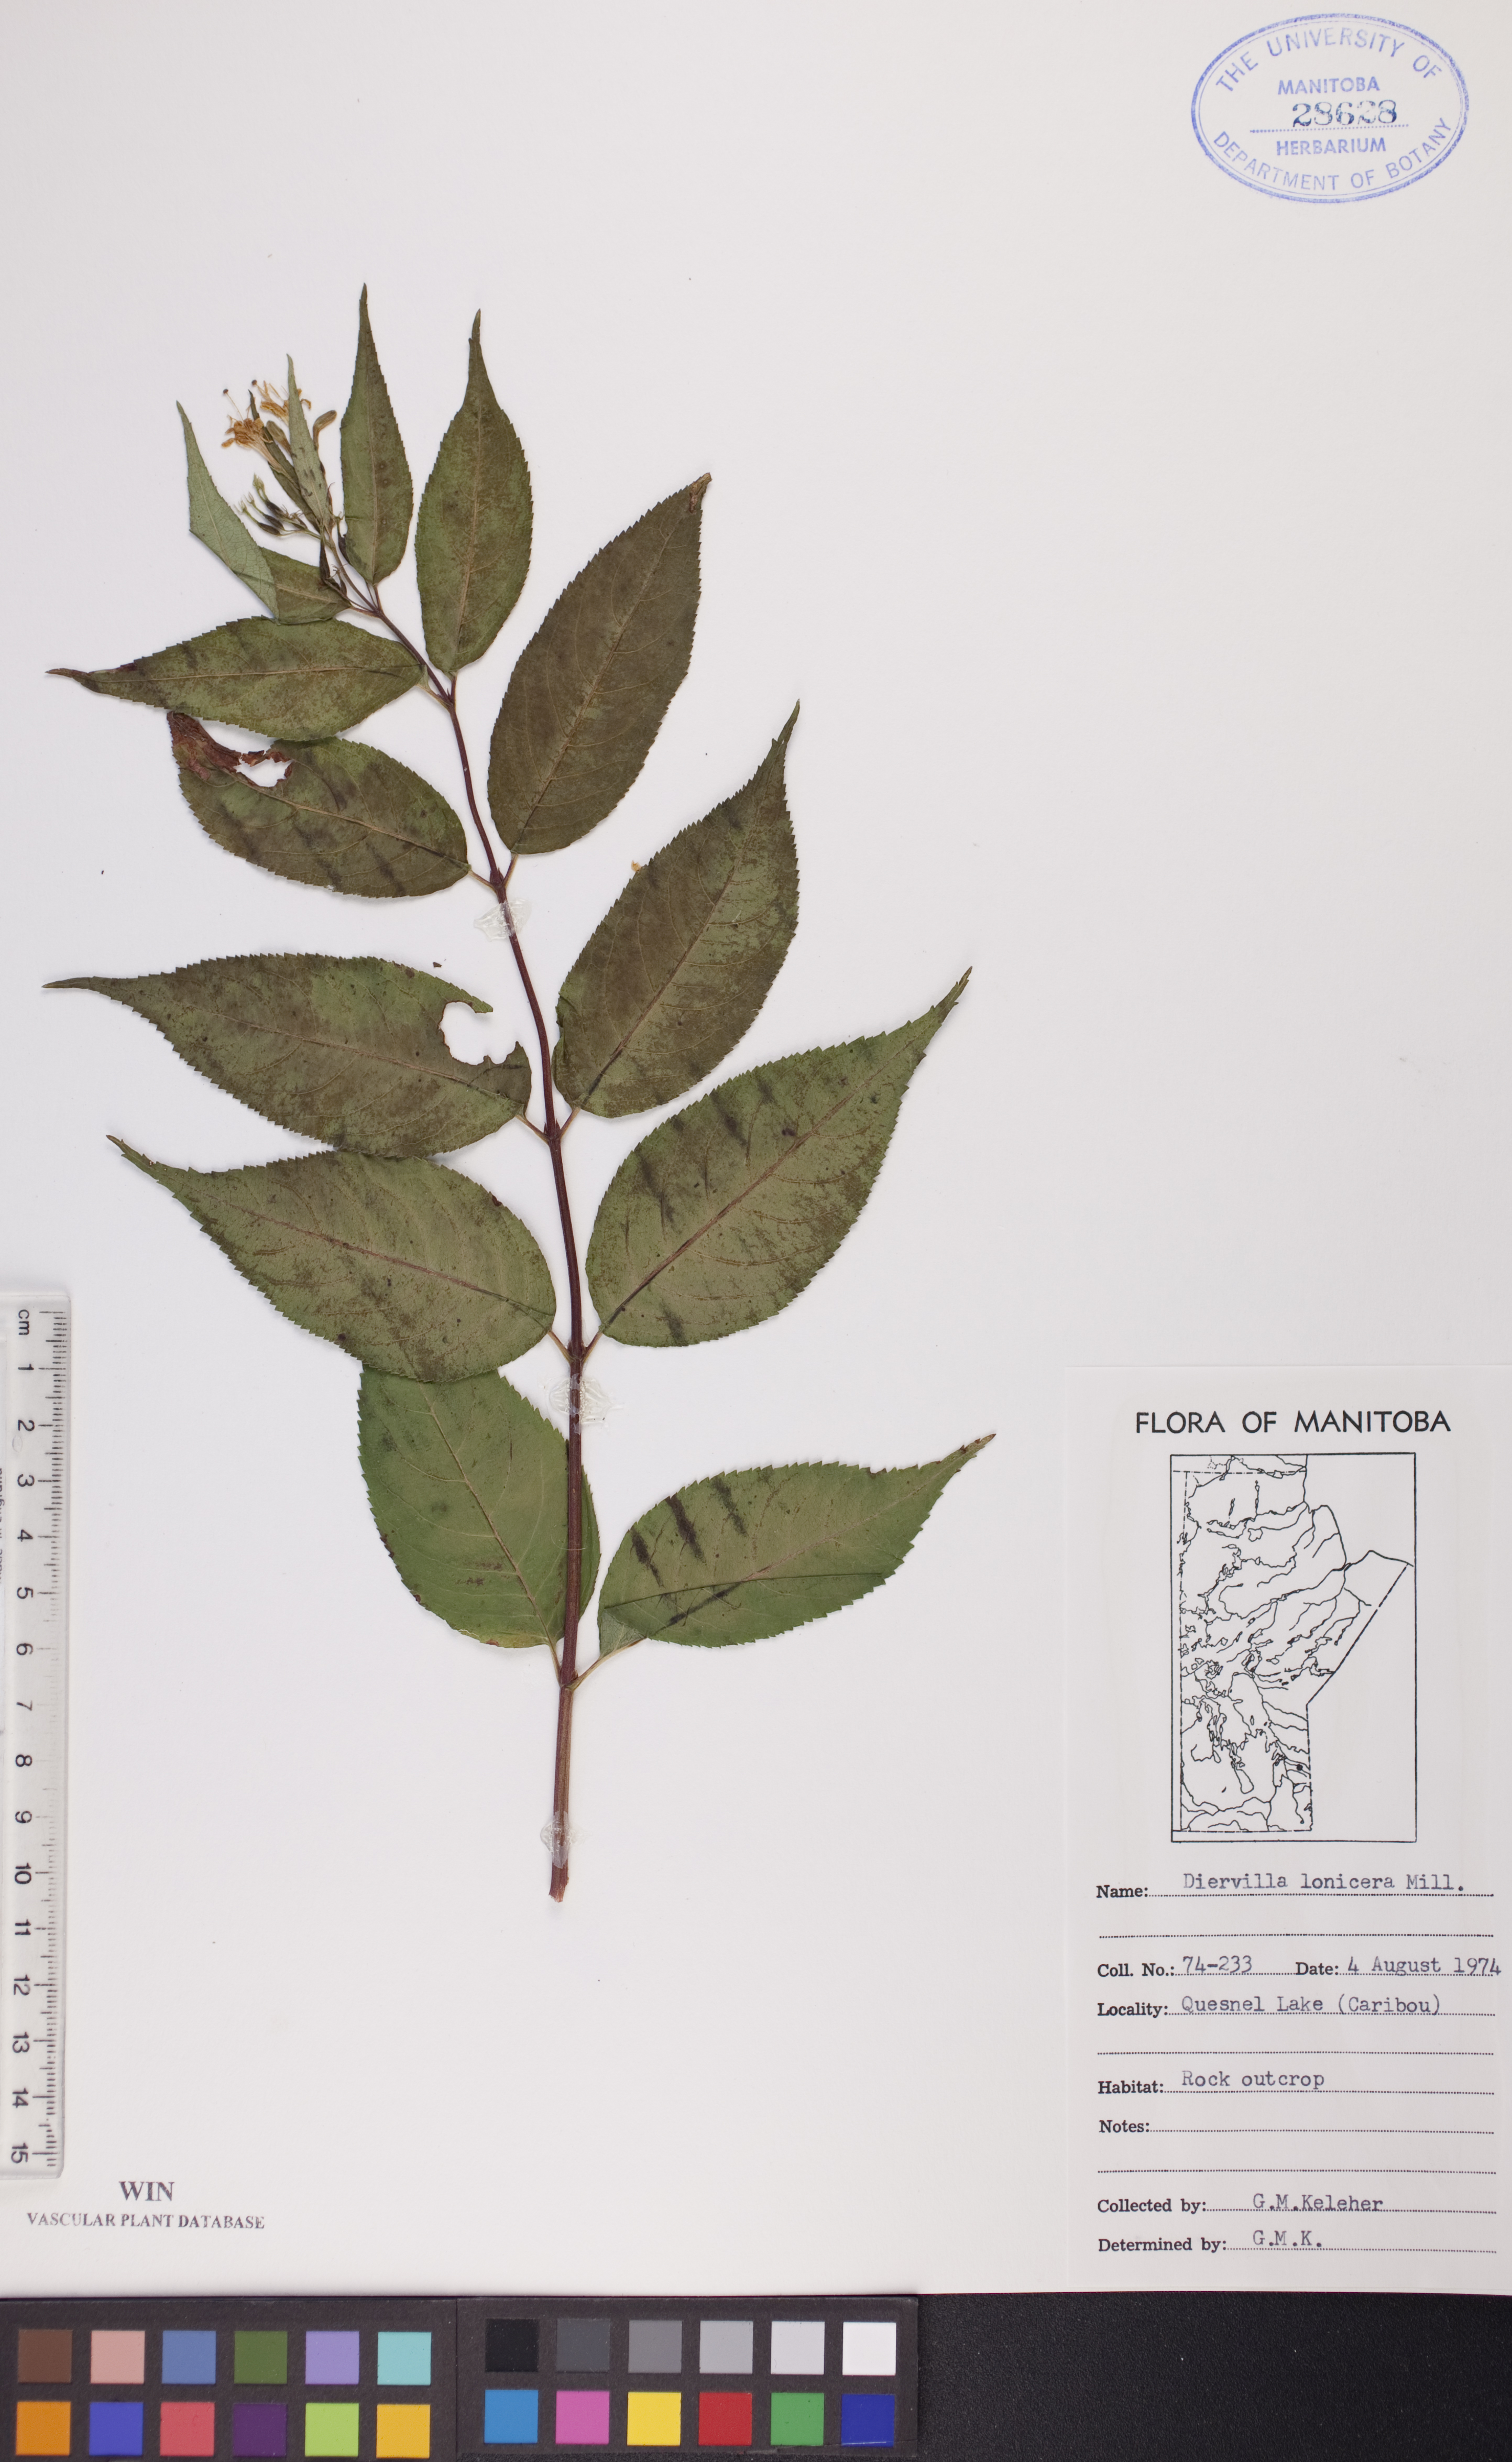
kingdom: Plantae
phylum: Tracheophyta
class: Magnoliopsida
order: Dipsacales
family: Caprifoliaceae
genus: Diervilla
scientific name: Diervilla lonicera
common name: Bush-honeysuckle
